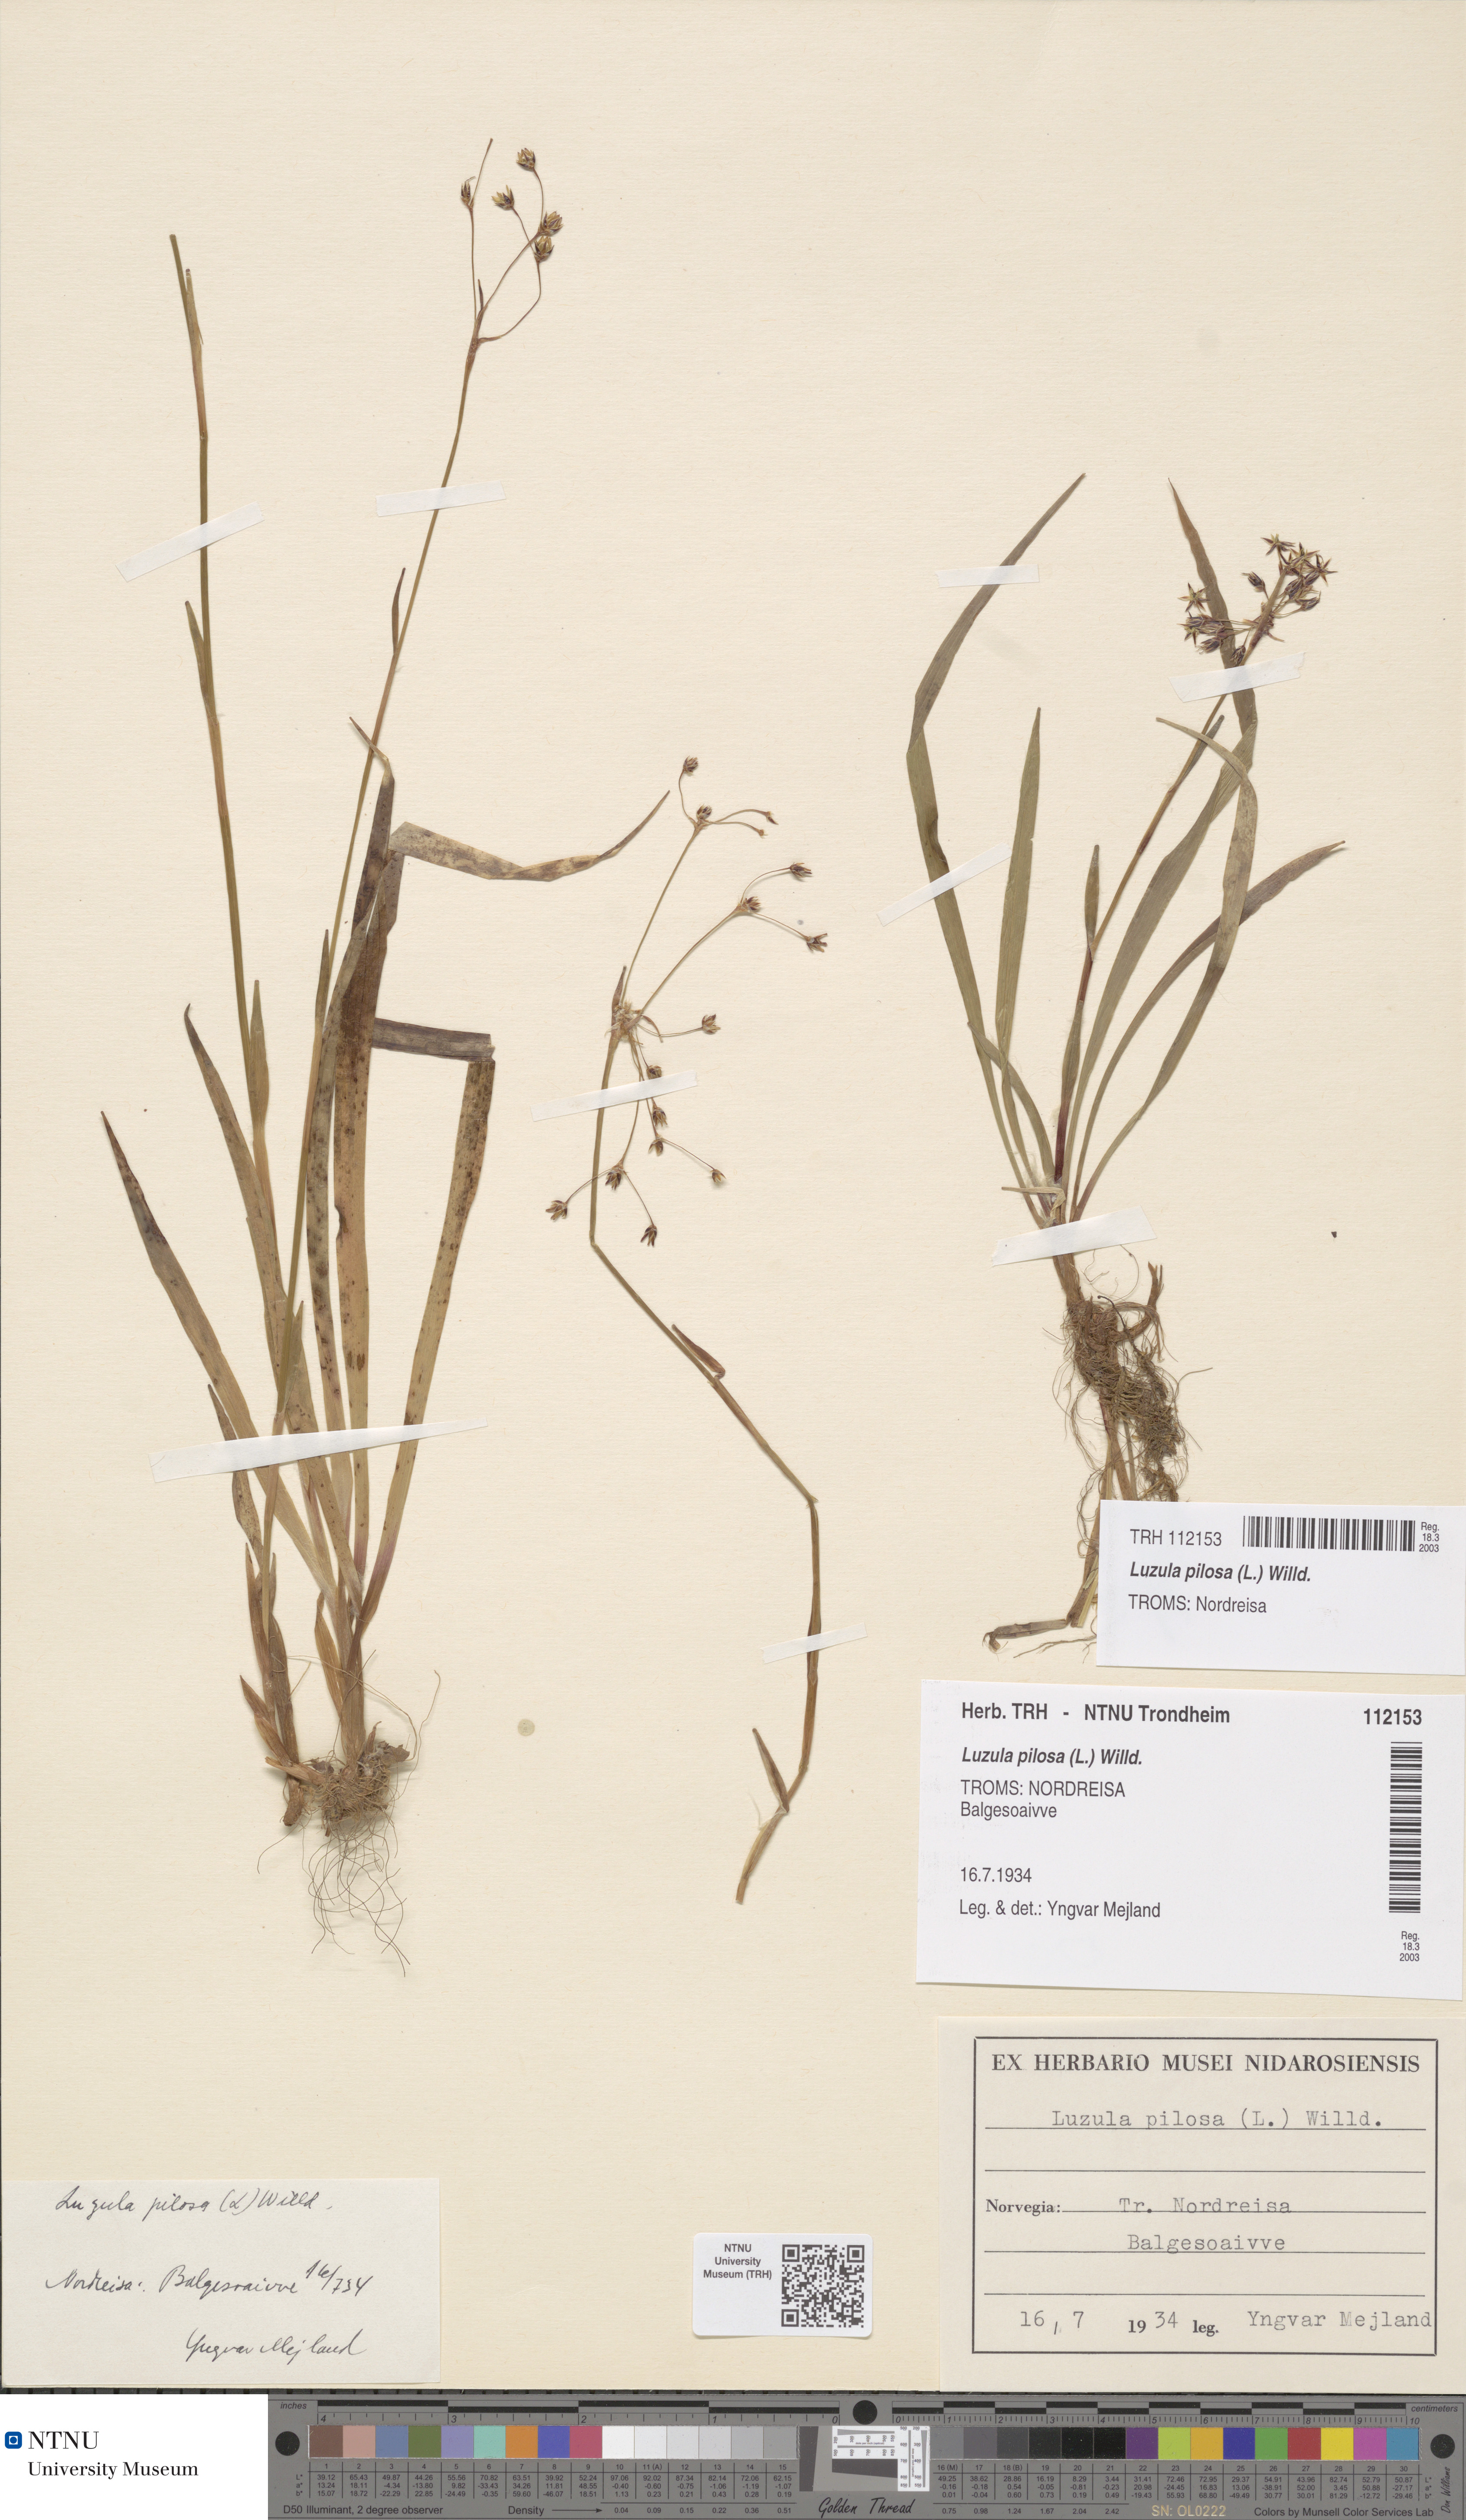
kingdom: Plantae
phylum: Tracheophyta
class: Liliopsida
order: Poales
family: Juncaceae
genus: Luzula
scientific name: Luzula pilosa
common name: Hairy wood-rush
